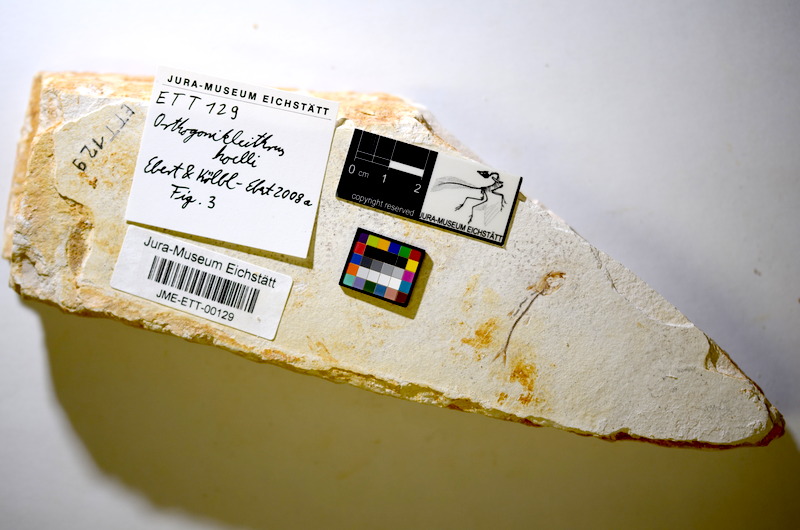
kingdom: Animalia
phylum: Chordata
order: Salmoniformes
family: Orthogonikleithridae
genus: Orthogonikleithrus
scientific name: Orthogonikleithrus hoelli
